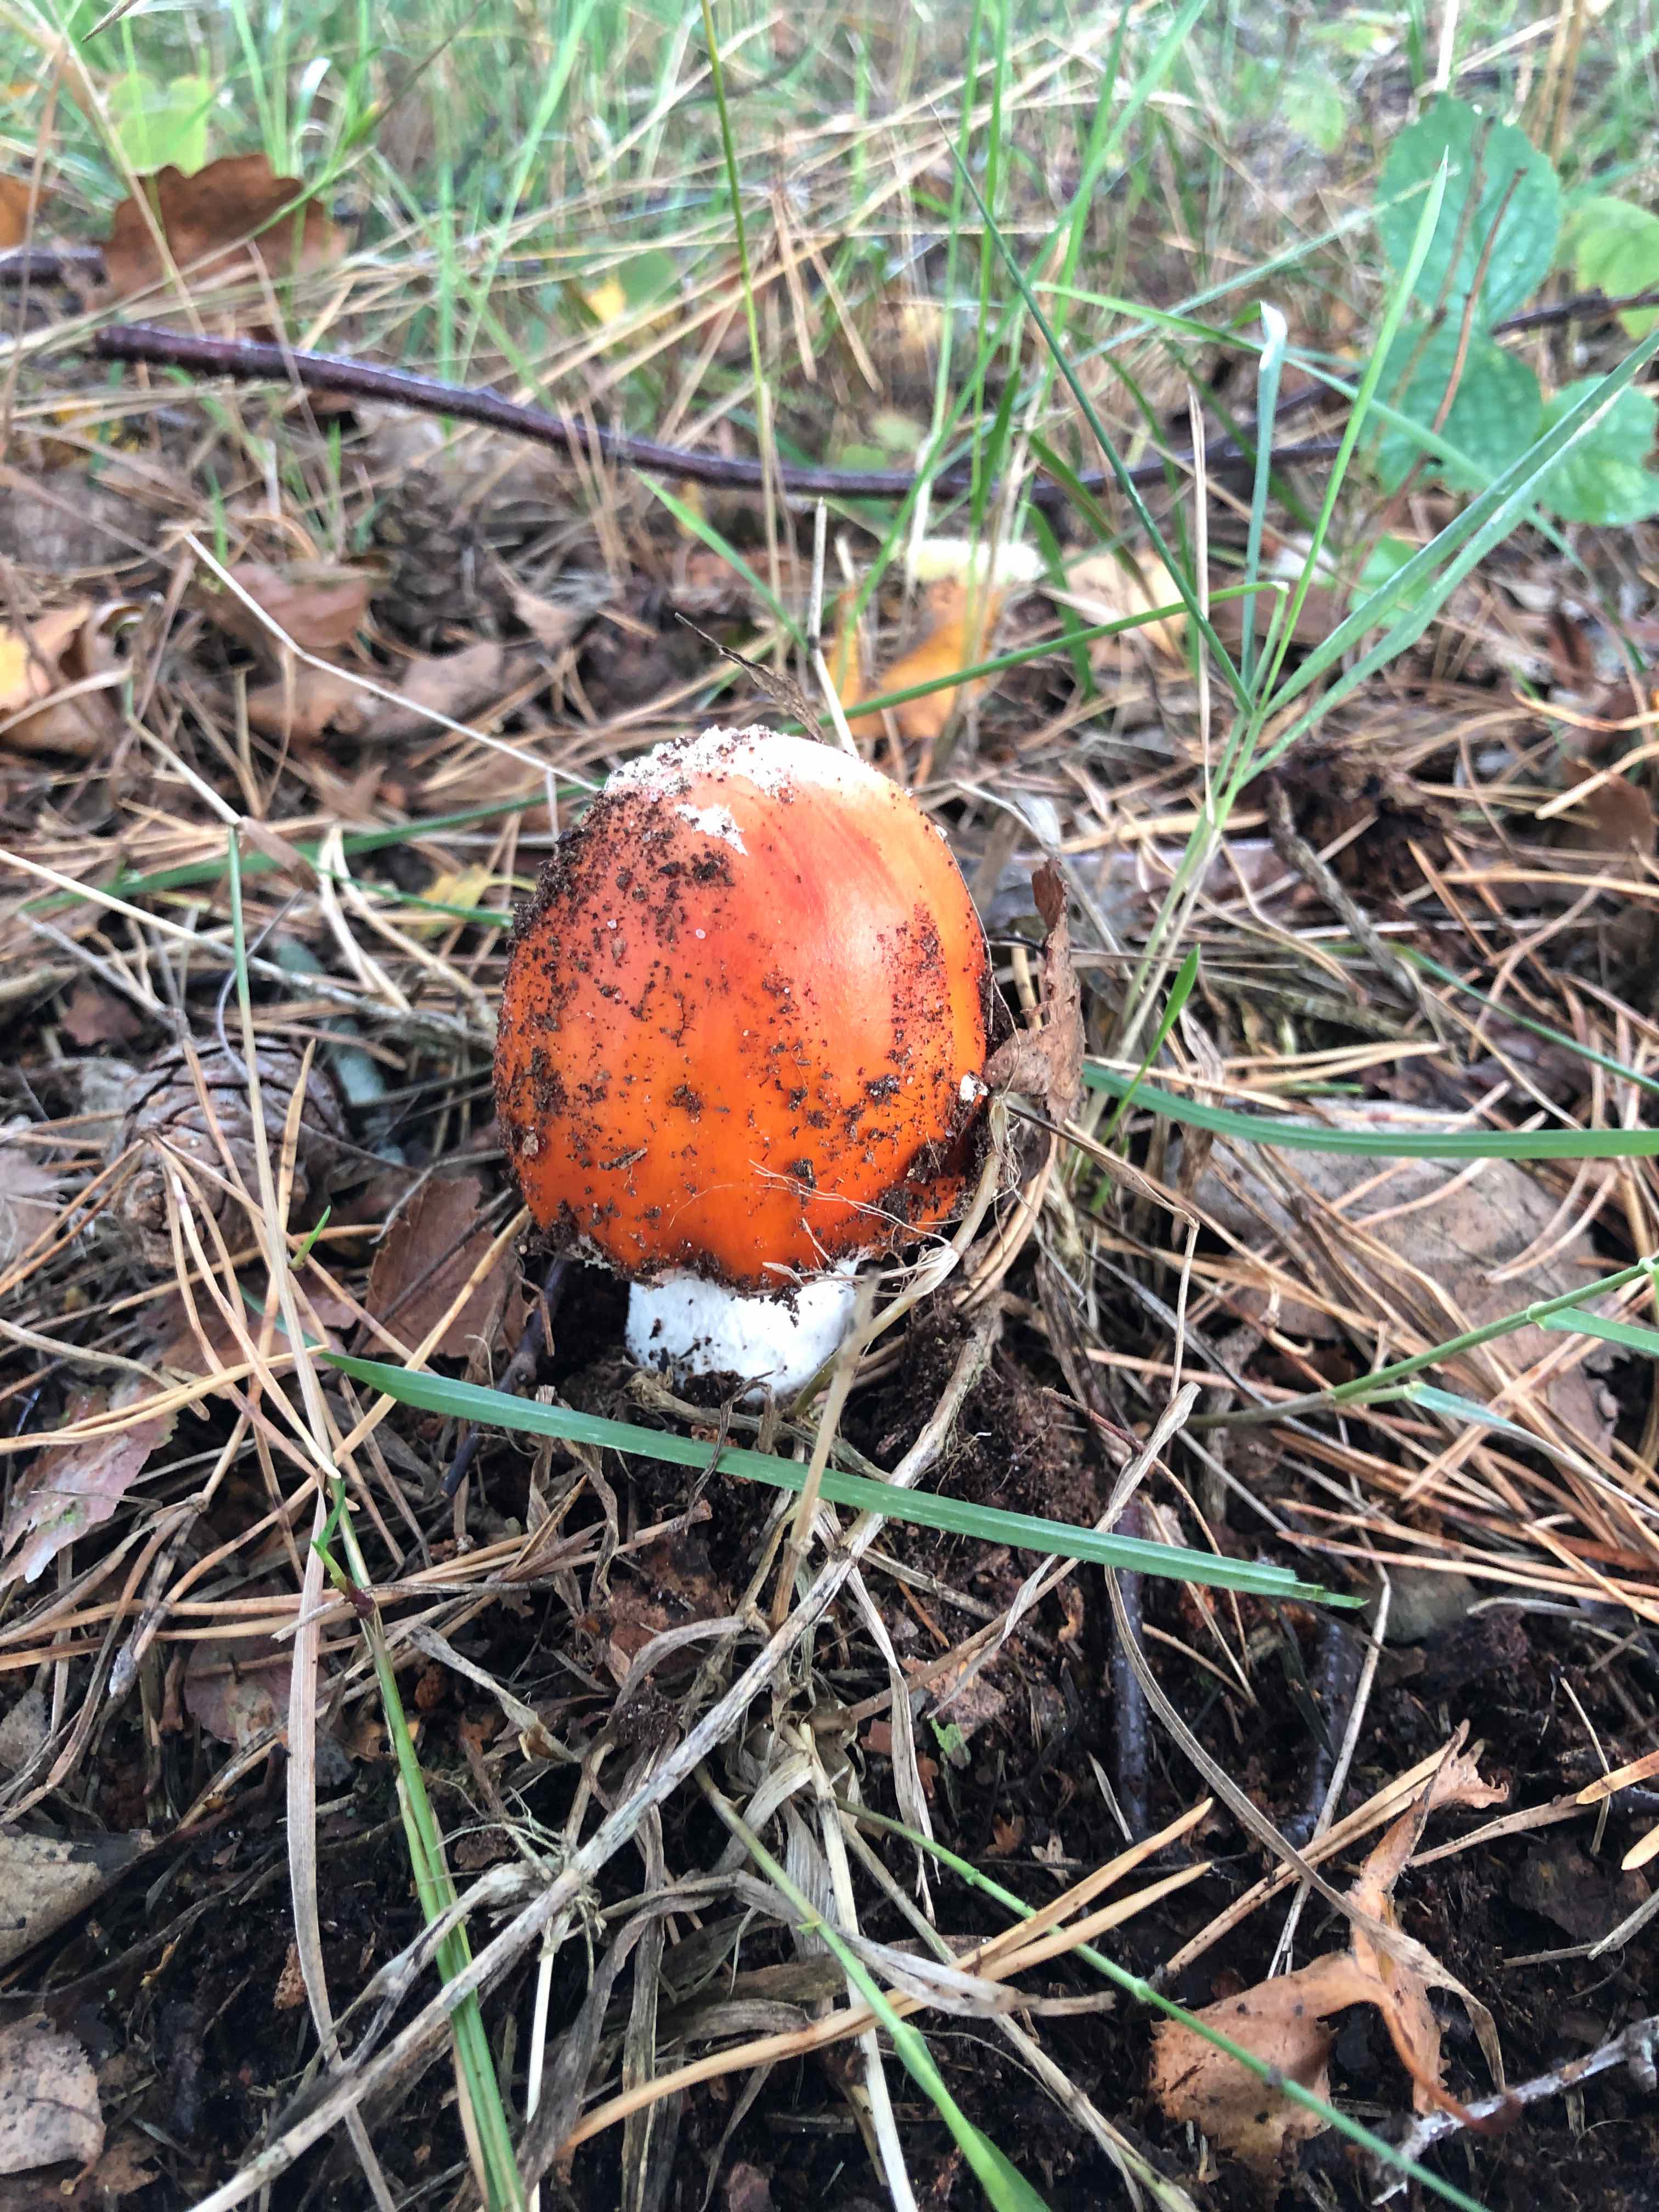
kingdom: Fungi
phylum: Basidiomycota
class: Agaricomycetes
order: Agaricales
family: Amanitaceae
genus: Amanita
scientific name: Amanita muscaria
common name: rød fluesvamp
